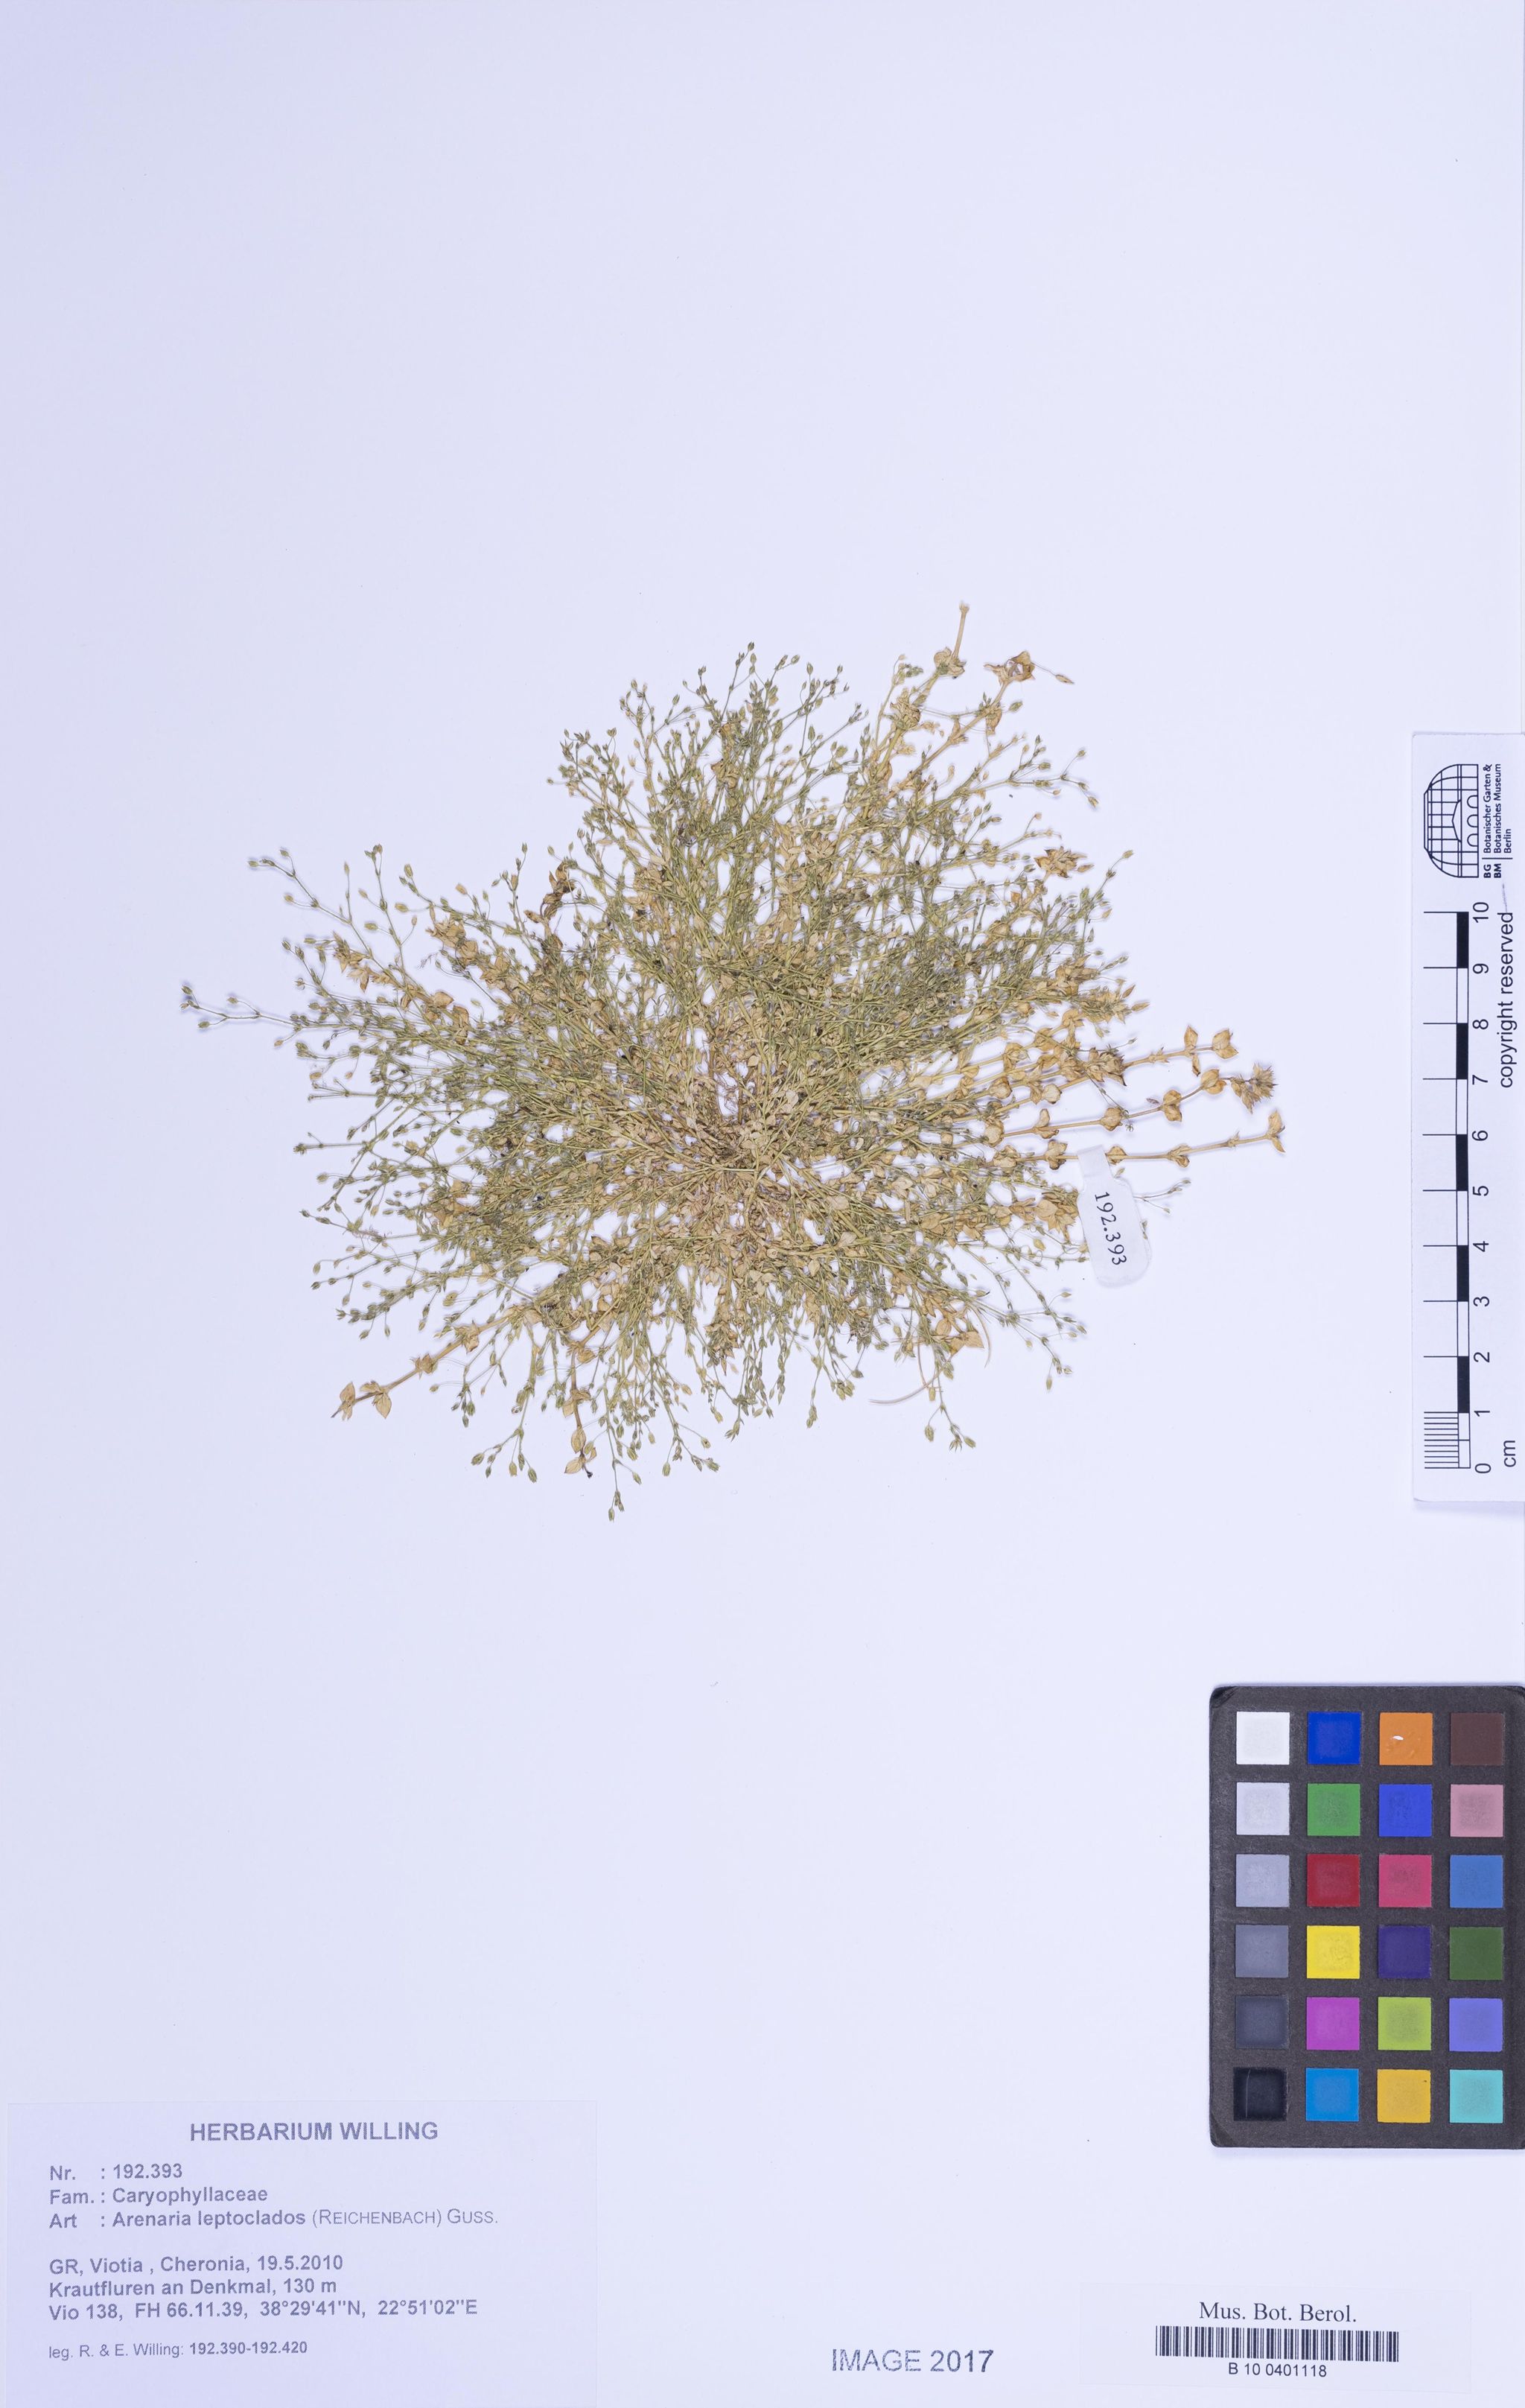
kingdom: Plantae
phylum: Tracheophyta
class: Magnoliopsida
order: Caryophyllales
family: Caryophyllaceae
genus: Arenaria
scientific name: Arenaria leptoclados
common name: Thyme-leaved sandwort
